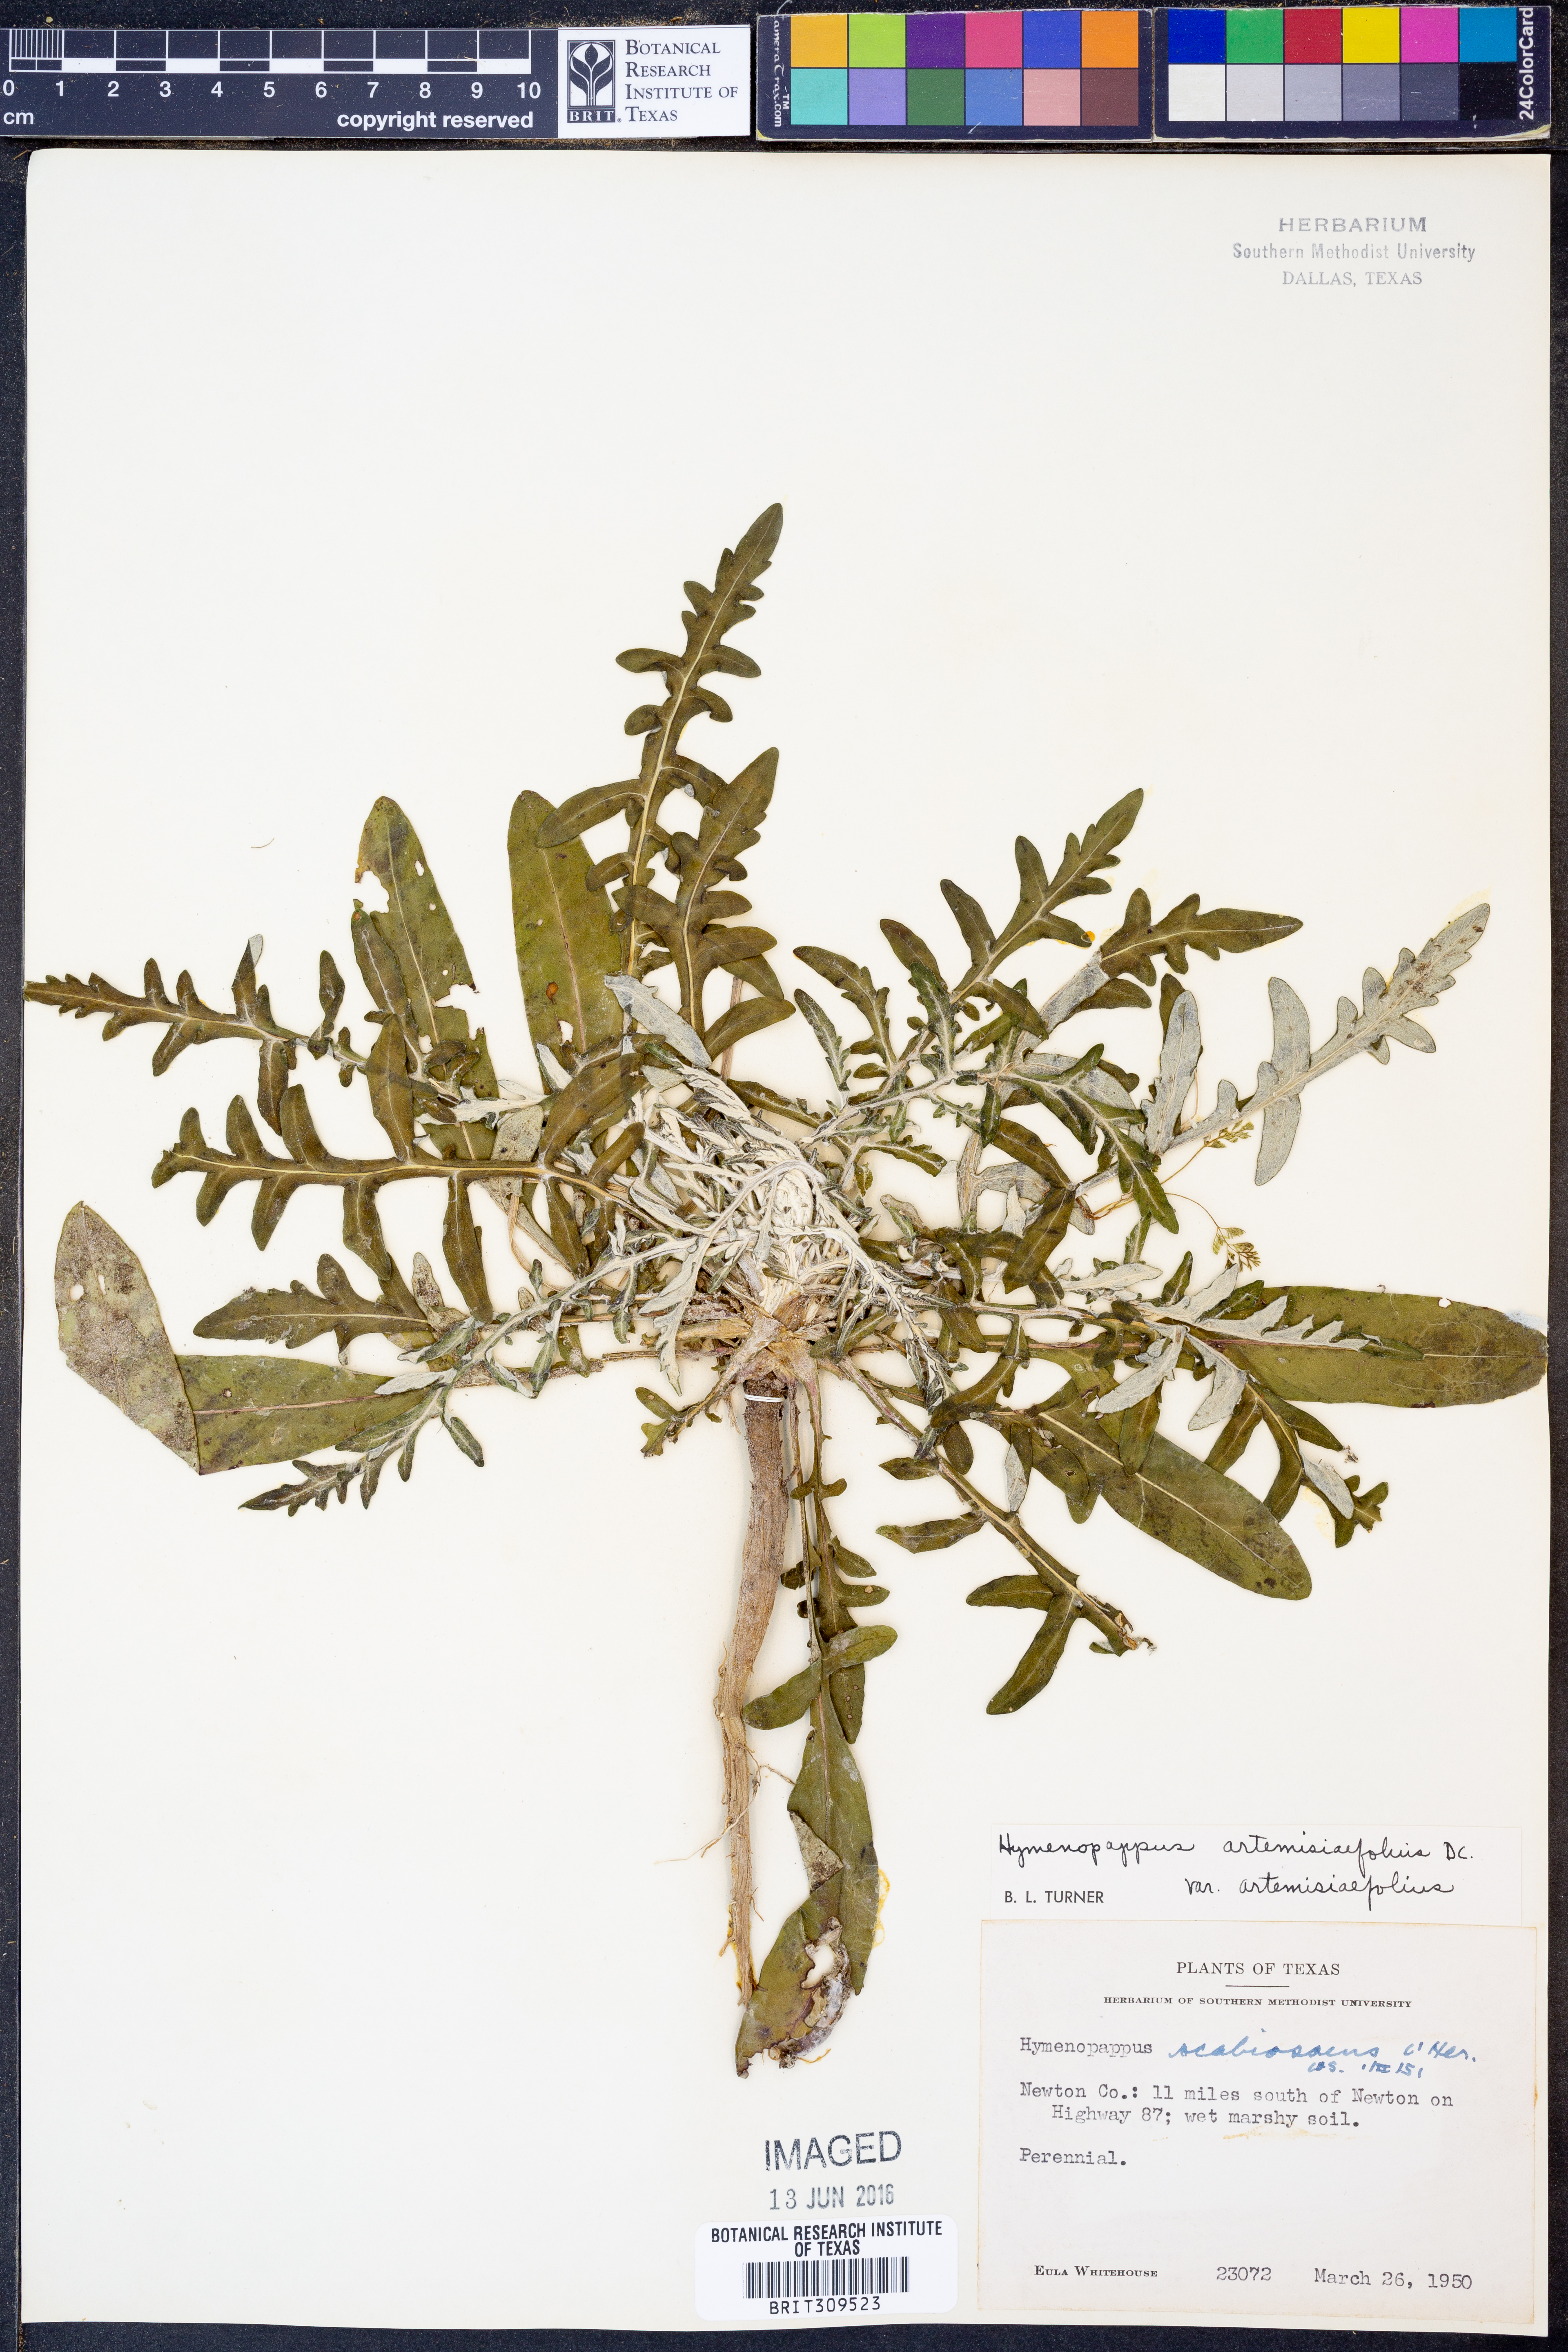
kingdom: Plantae
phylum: Tracheophyta
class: Magnoliopsida
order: Asterales
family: Asteraceae
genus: Hymenopappus
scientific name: Hymenopappus artemisiifolius
